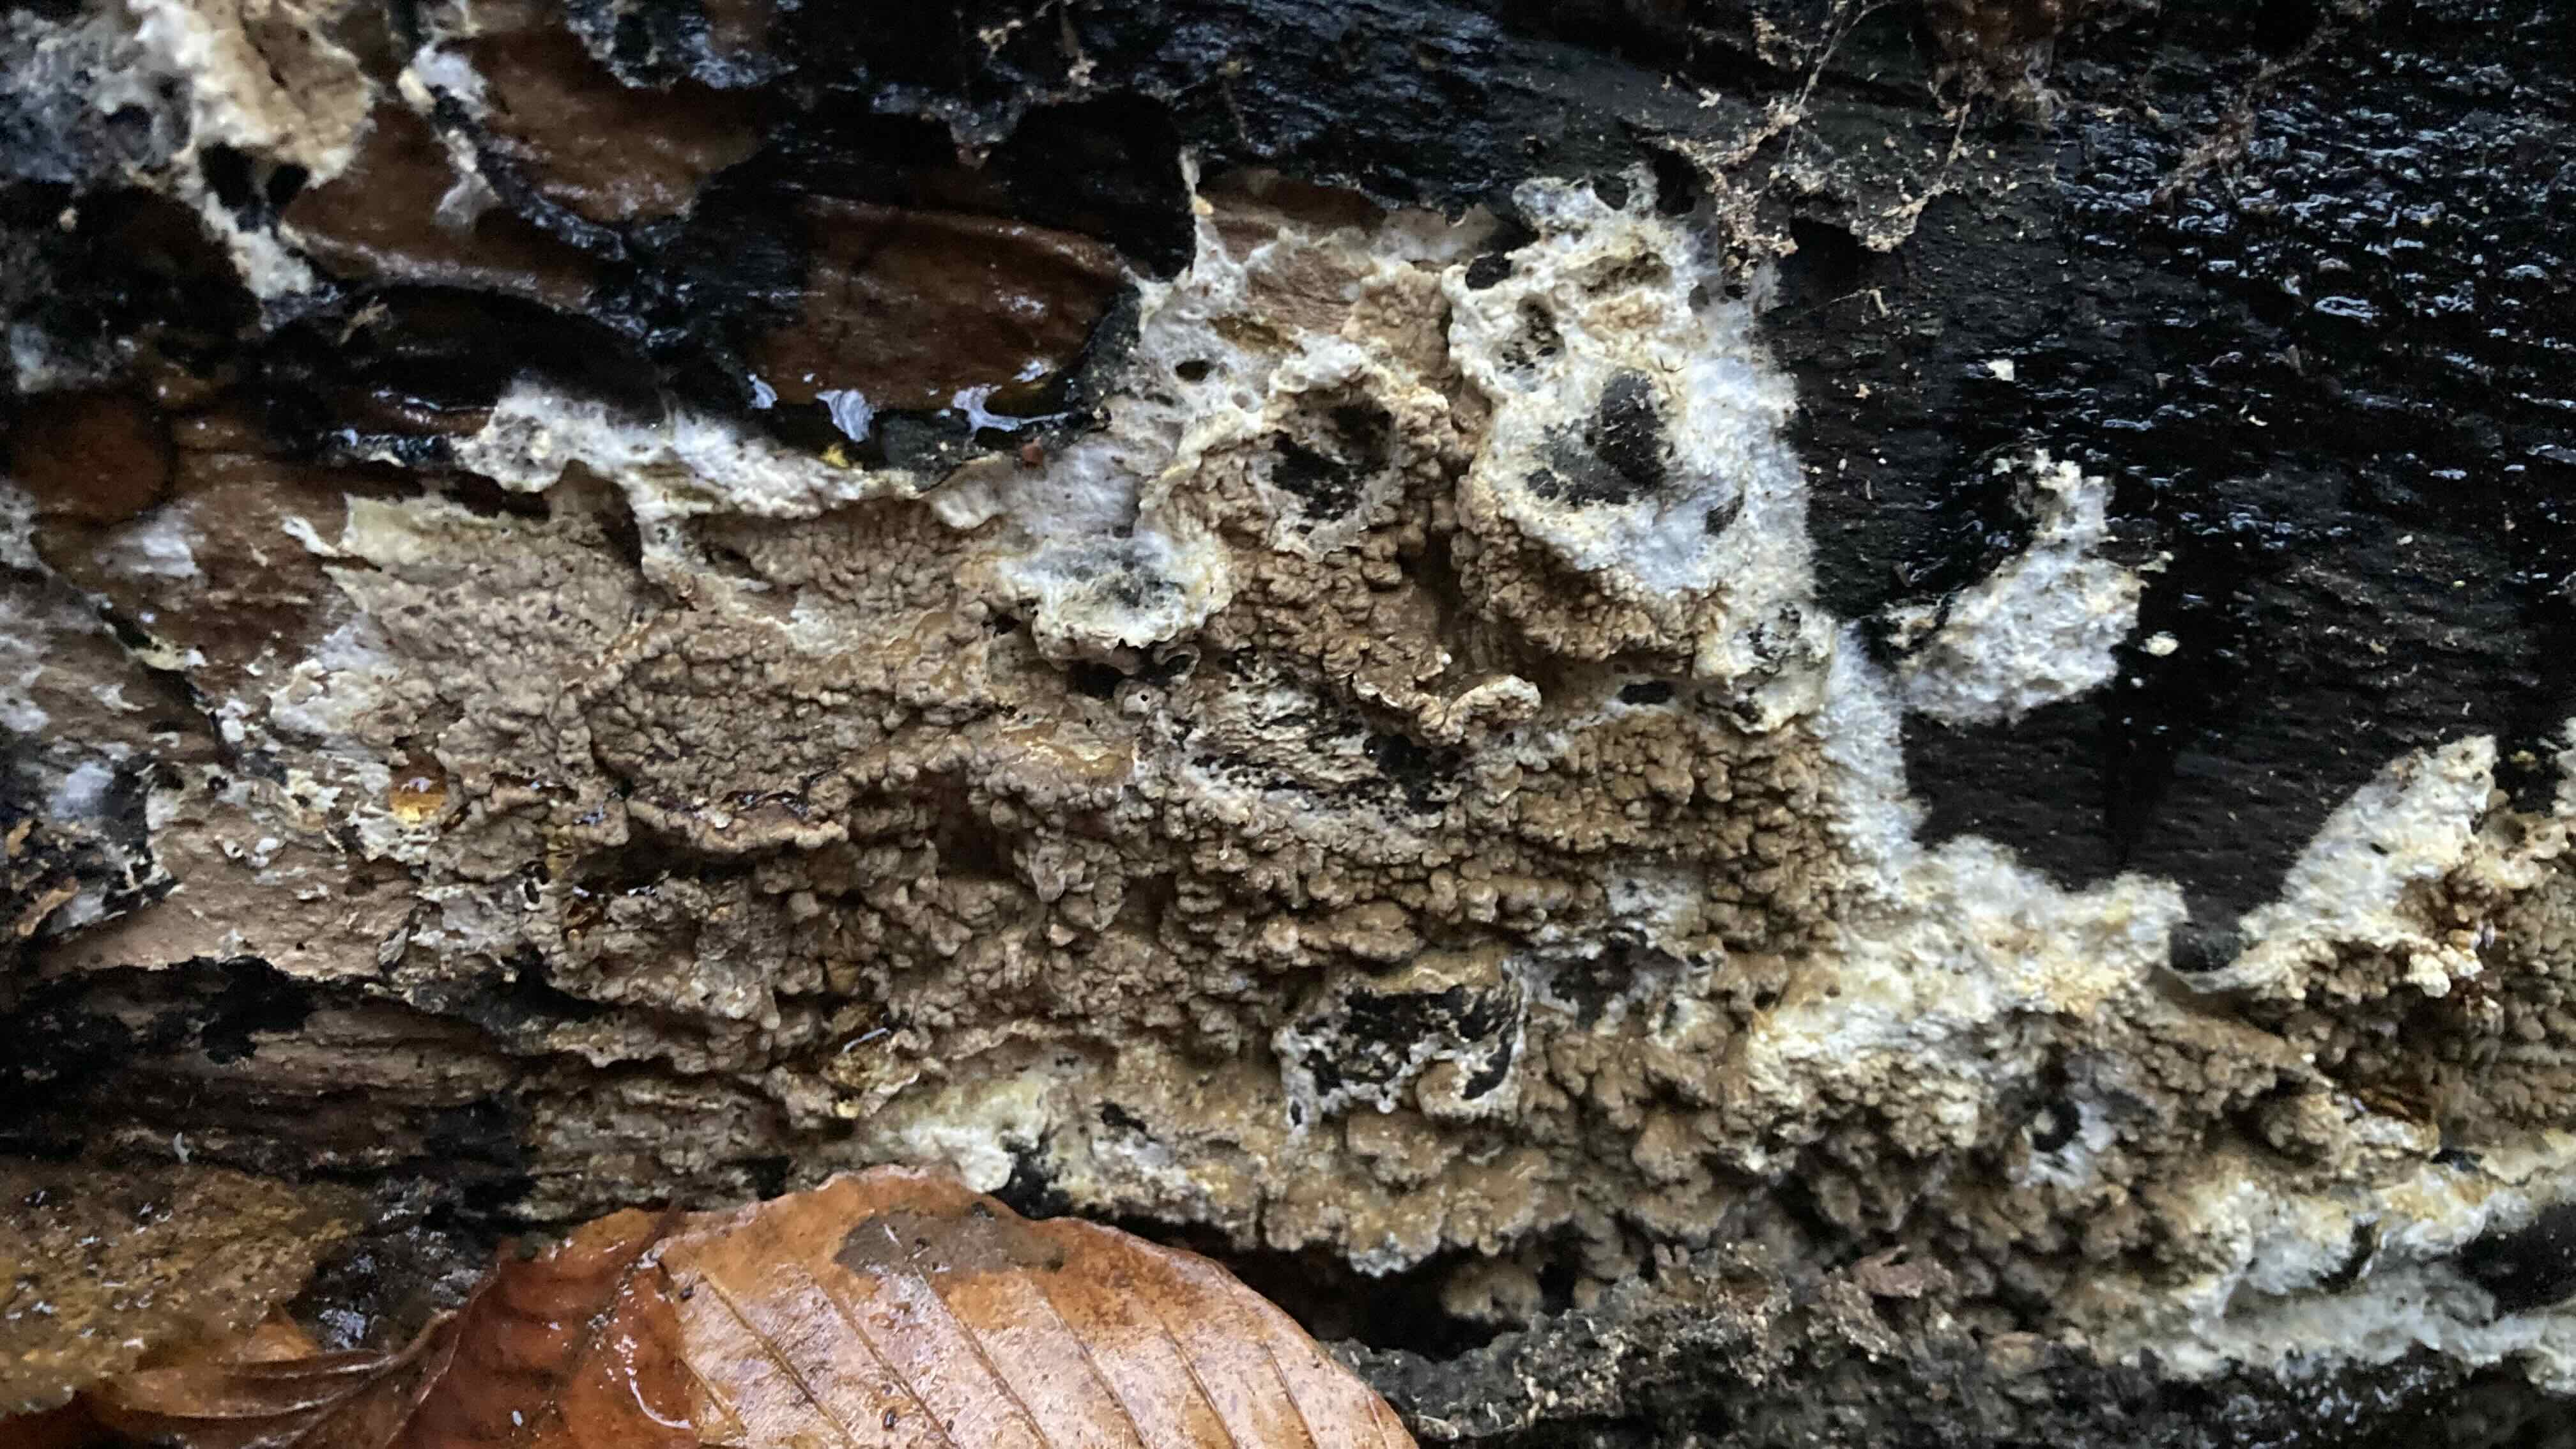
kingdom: Fungi
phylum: Basidiomycota
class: Agaricomycetes
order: Boletales
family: Coniophoraceae
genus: Coniophora
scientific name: Coniophora puteana
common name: gul tømmersvamp
